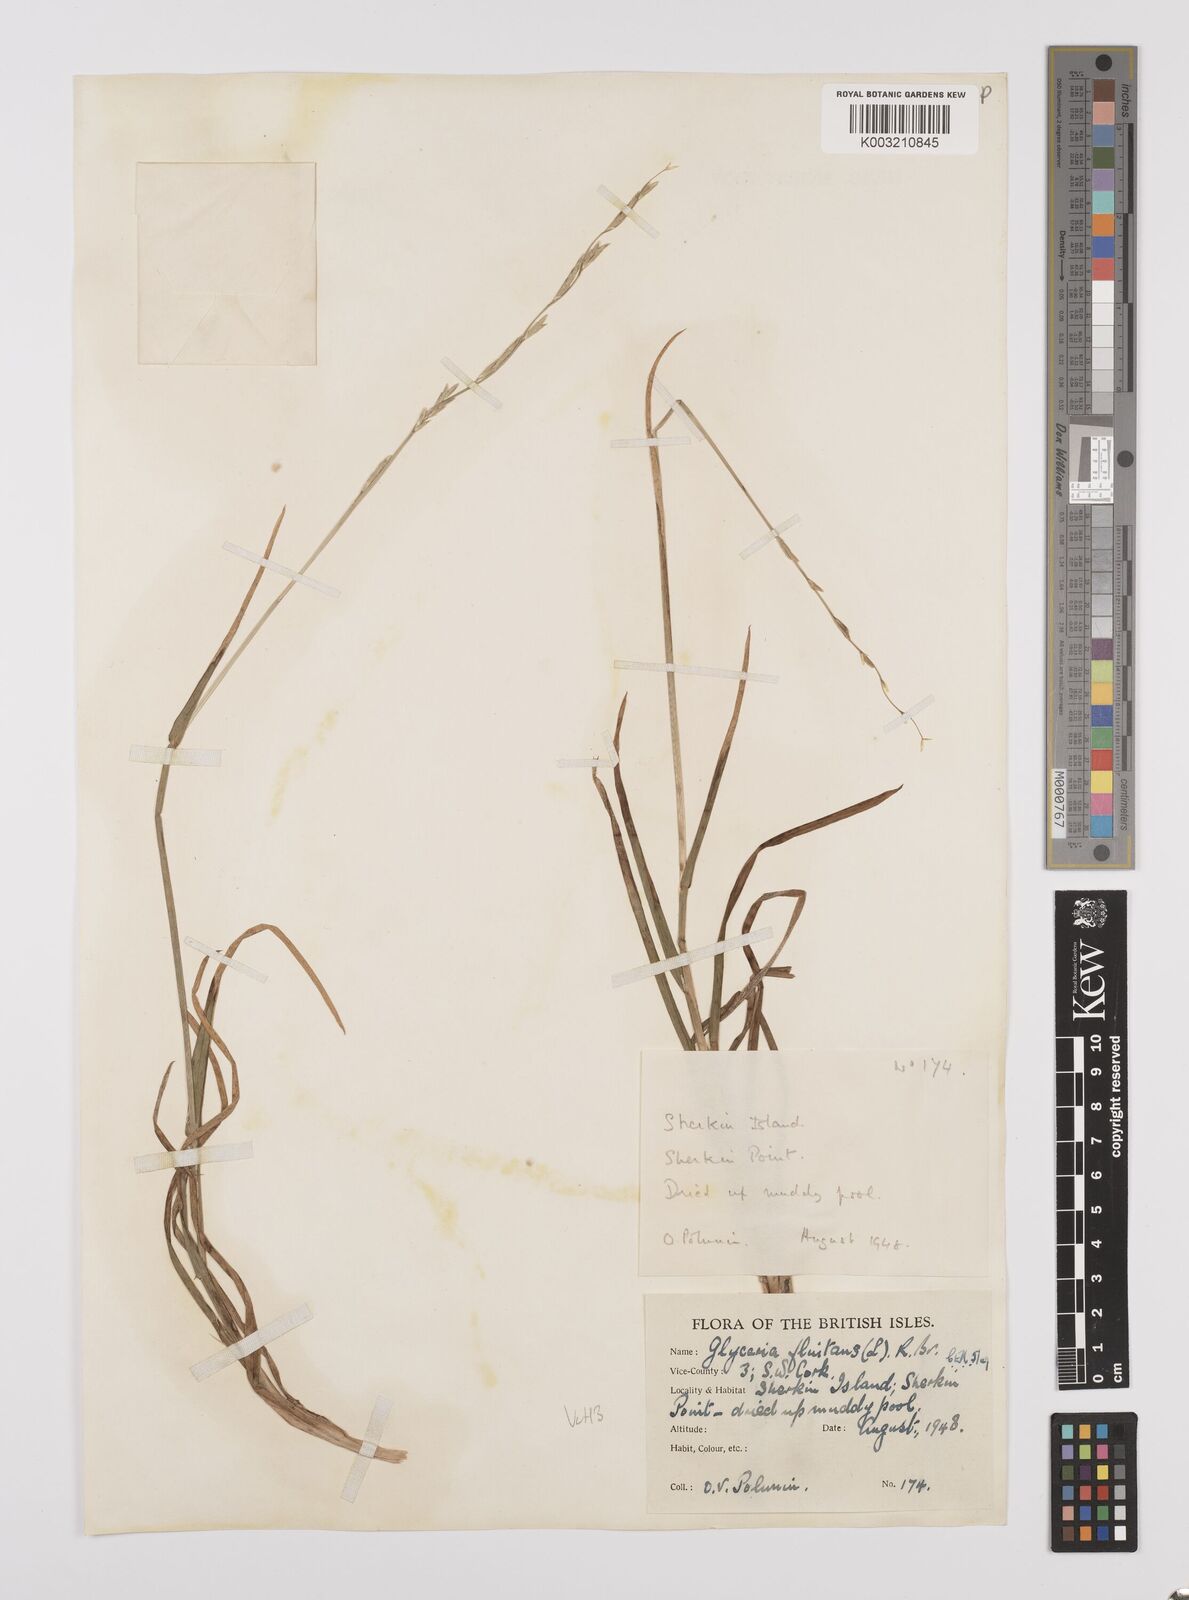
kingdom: Plantae
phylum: Tracheophyta
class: Liliopsida
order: Poales
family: Poaceae
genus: Glyceria
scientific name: Glyceria fluitans
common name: Floating sweet-grass
